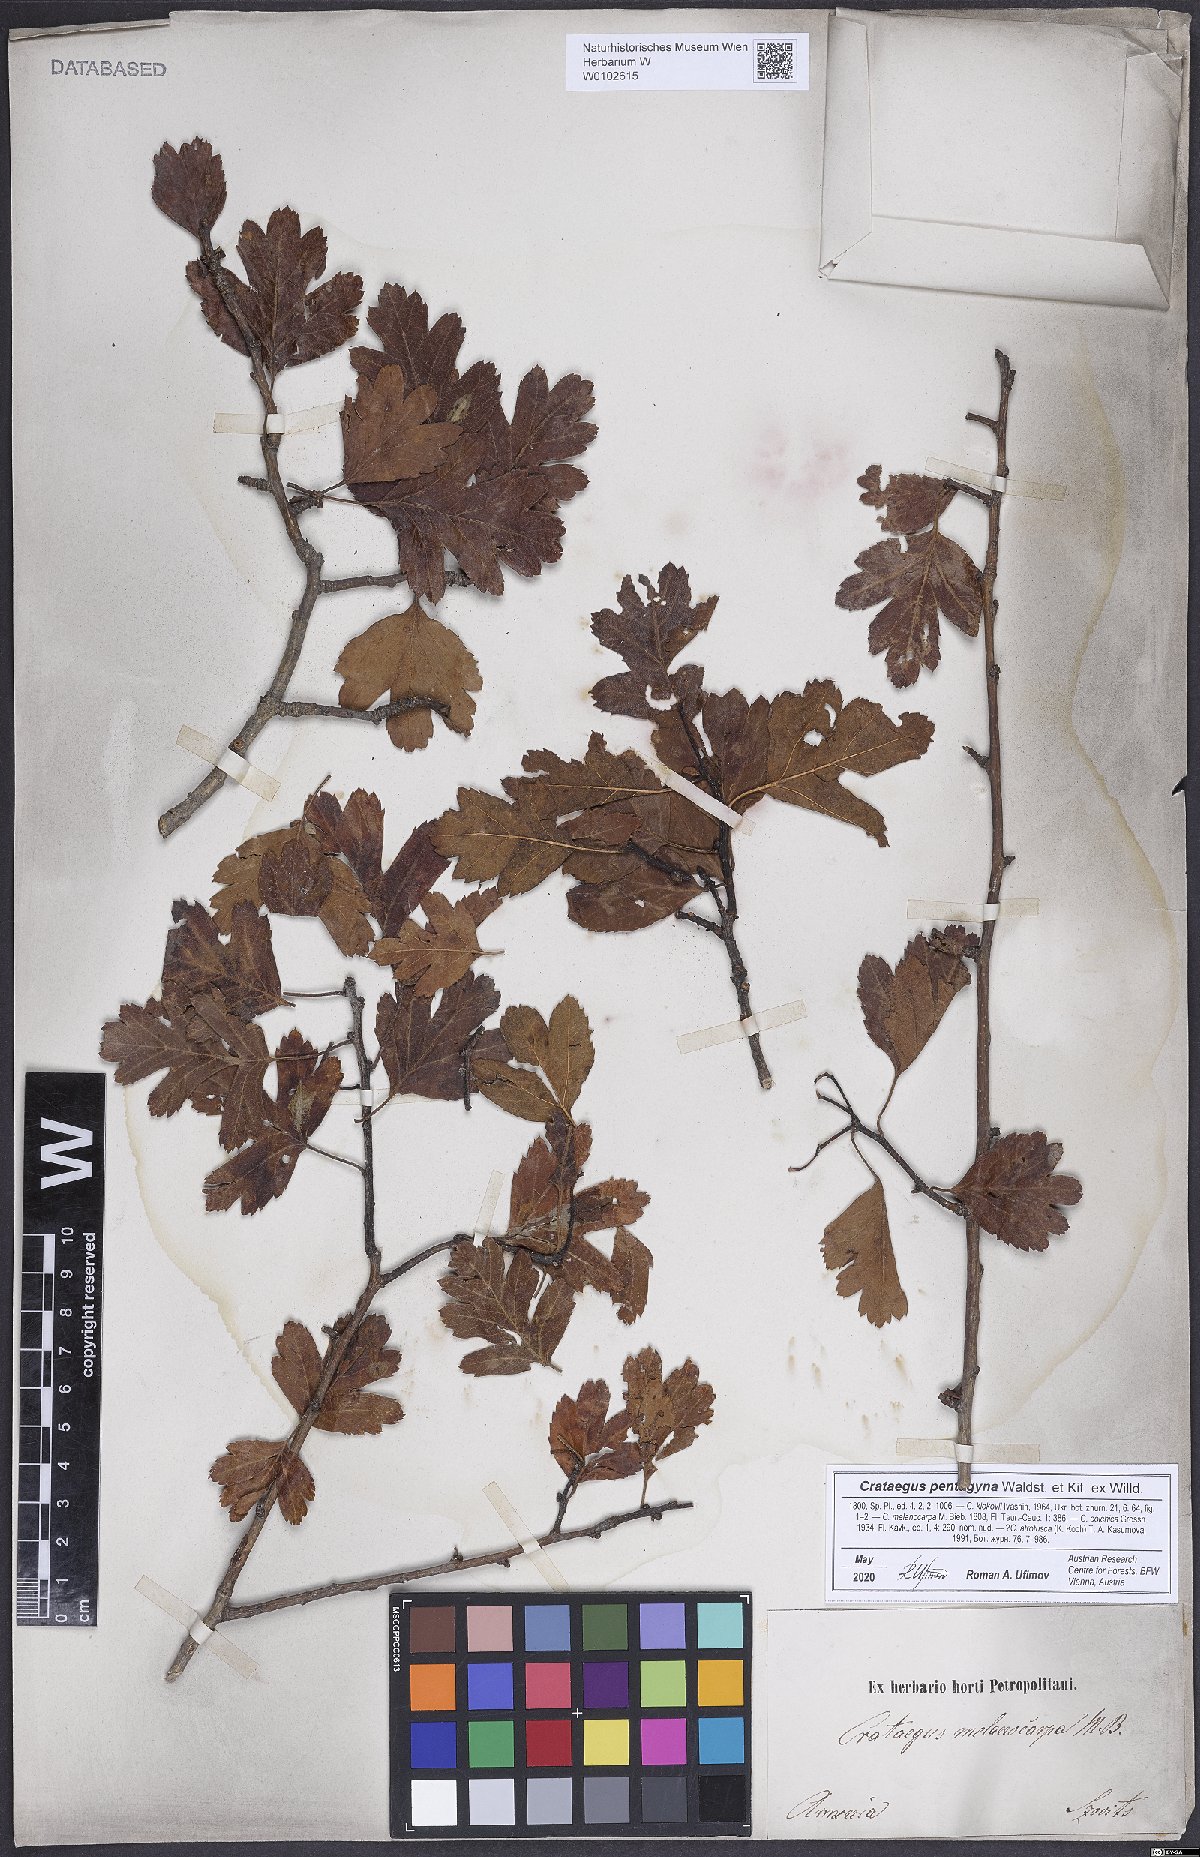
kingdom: Plantae
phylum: Tracheophyta
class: Magnoliopsida
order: Rosales
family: Rosaceae
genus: Crataegus
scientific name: Crataegus pentagyna
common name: Small-flowered black hawthorn
